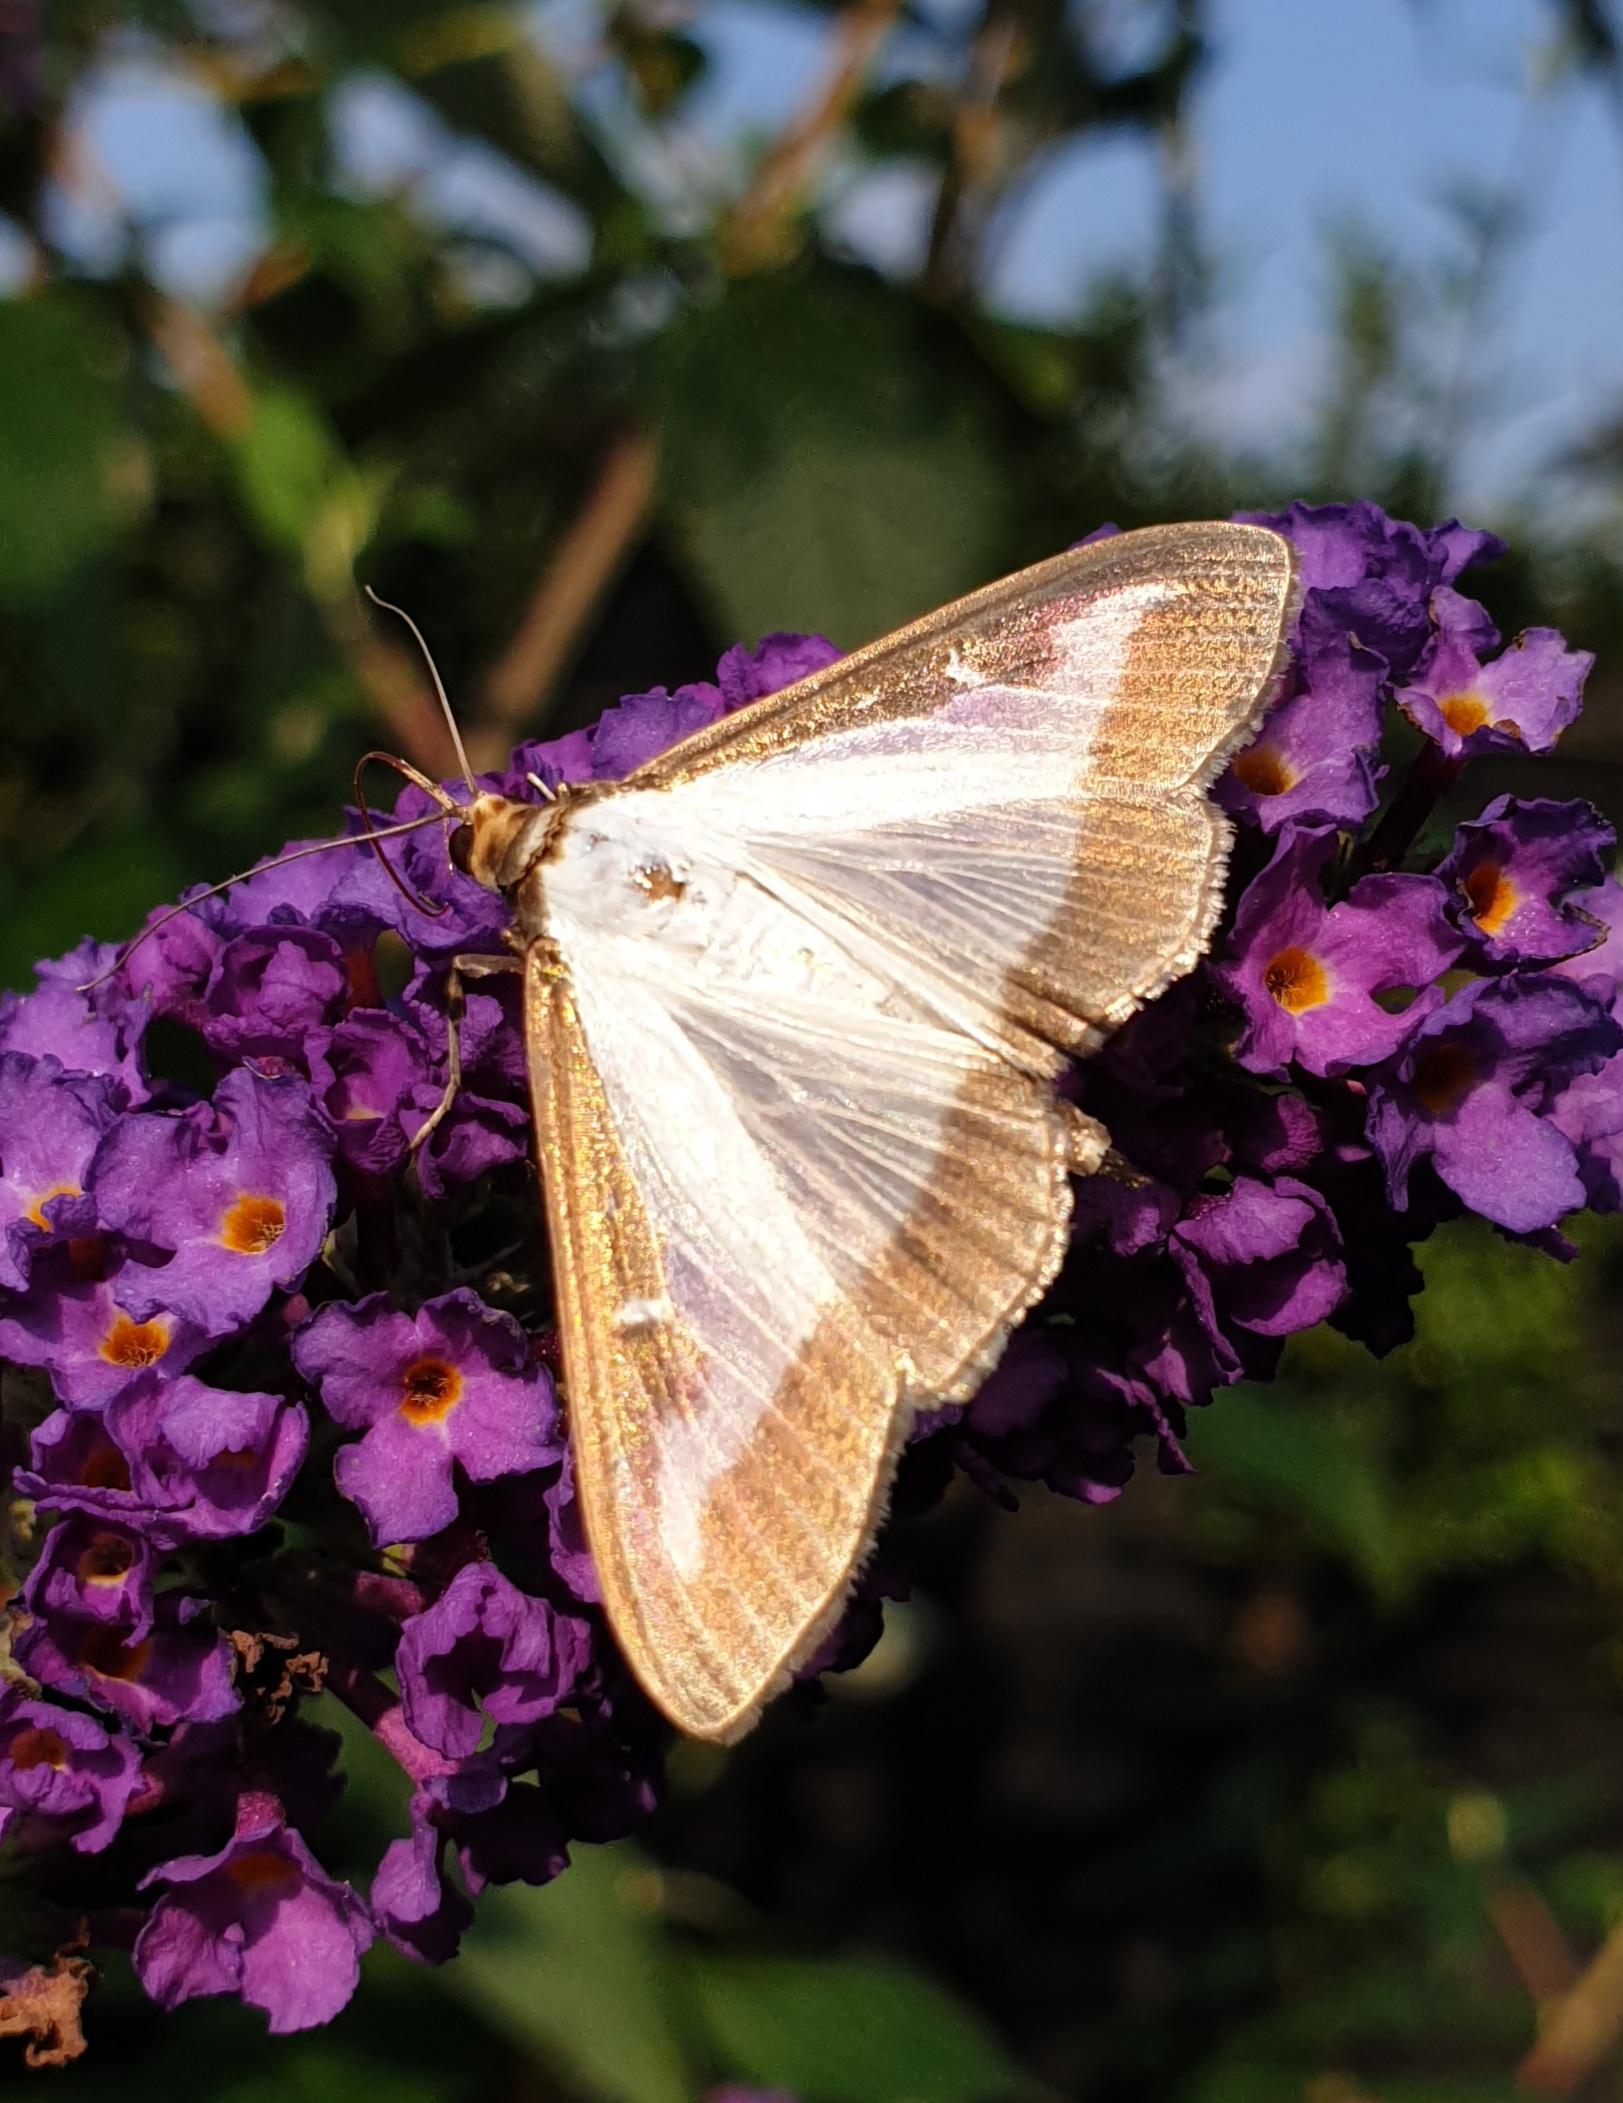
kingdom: Animalia
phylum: Arthropoda
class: Insecta
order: Lepidoptera
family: Crambidae
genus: Cydalima
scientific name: Cydalima perspectalis
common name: Buksbomhalvmøl
